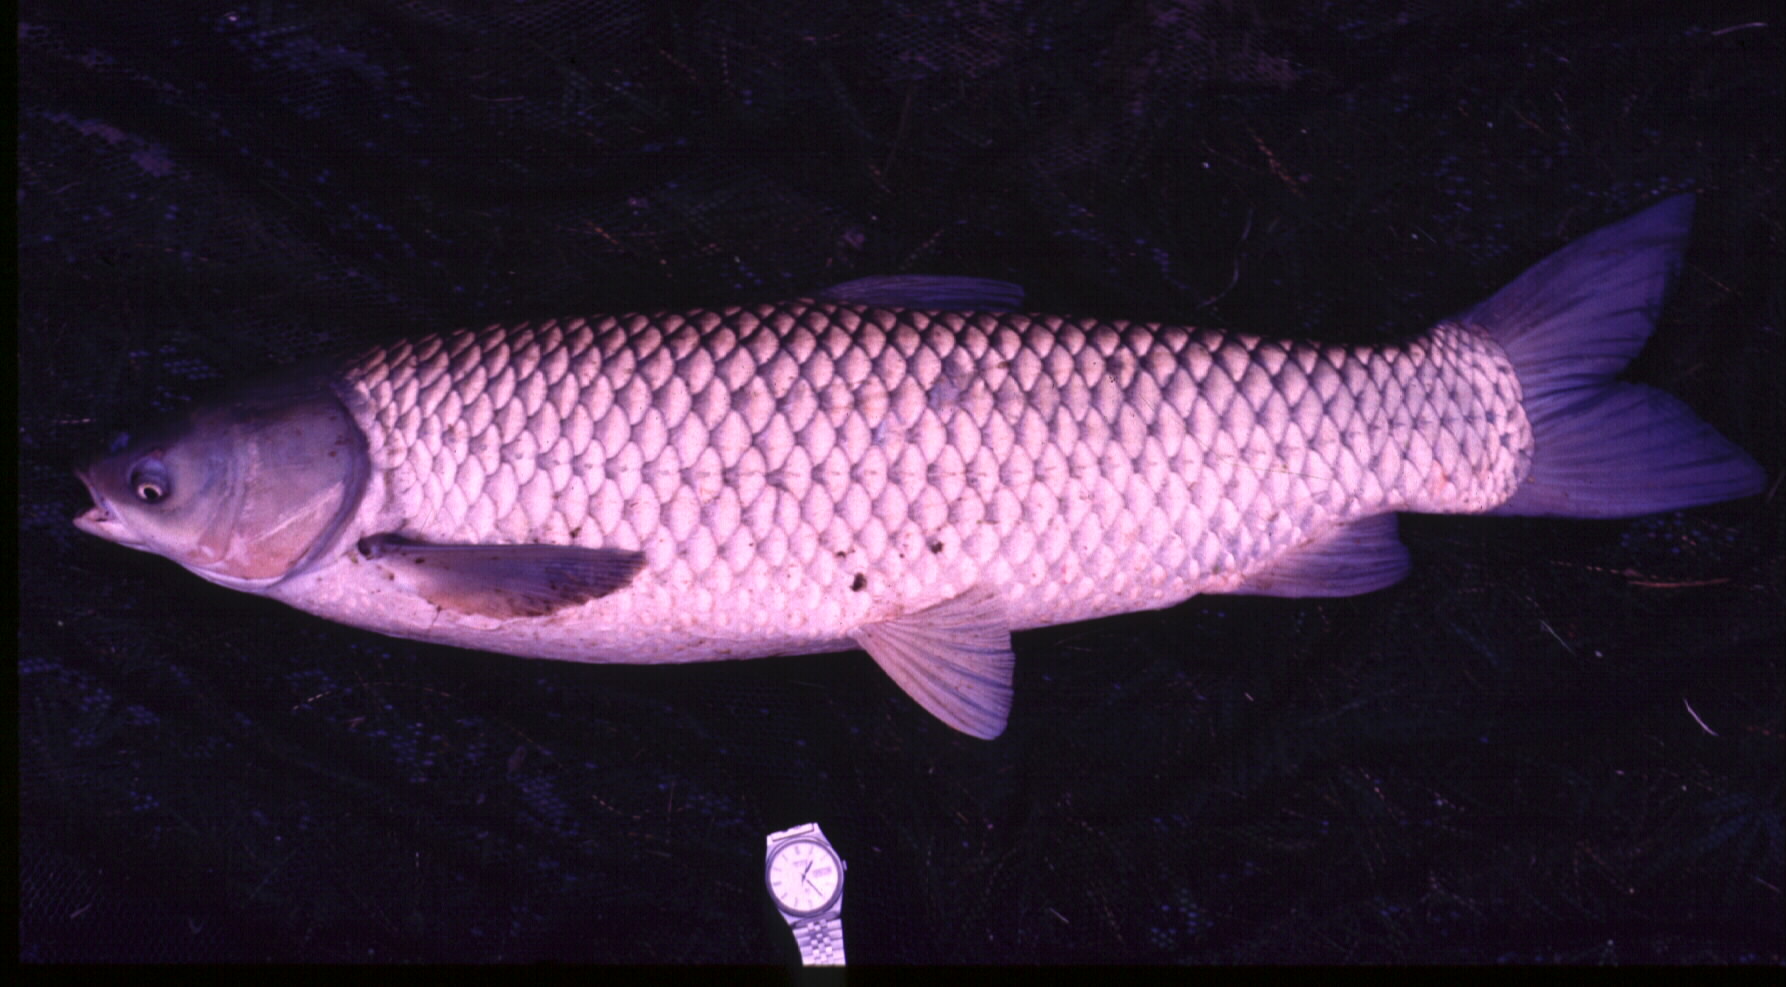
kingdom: Animalia
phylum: Chordata
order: Cypriniformes
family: Cyprinidae
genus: Ctenopharyngodon
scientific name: Ctenopharyngodon idella
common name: Grass carp
